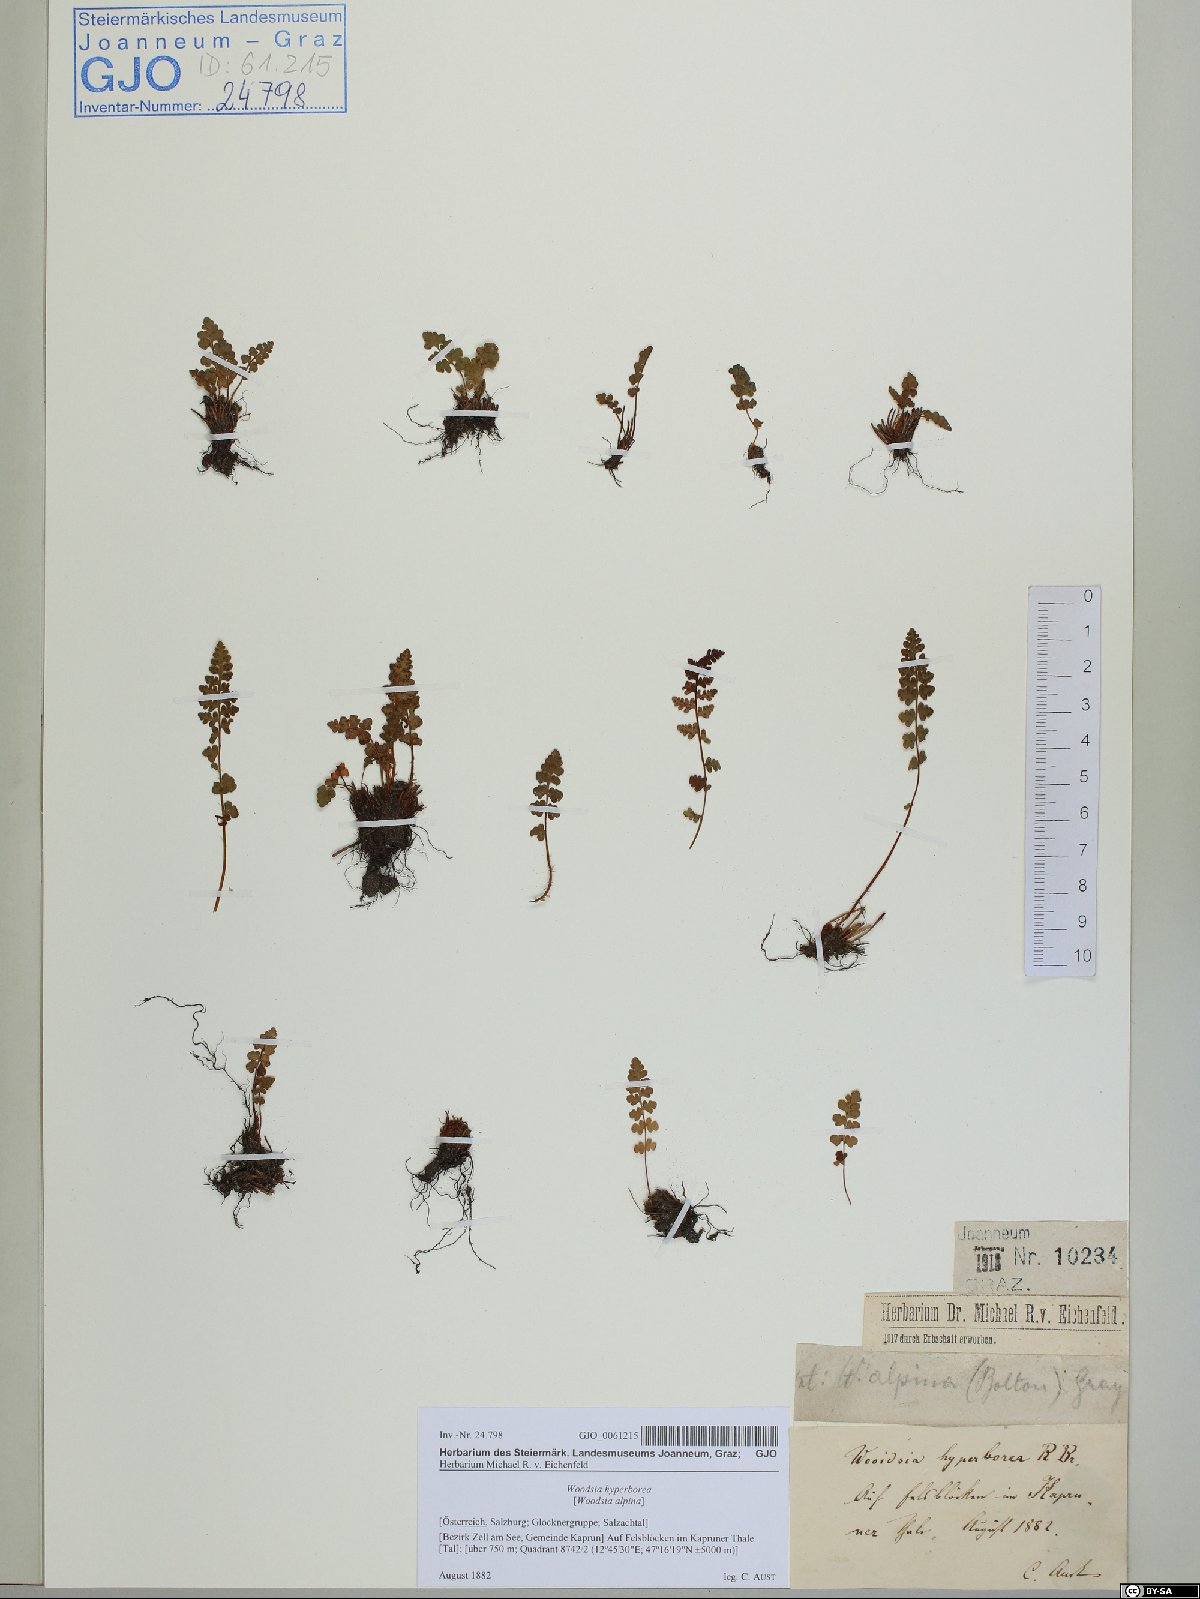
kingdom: Plantae
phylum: Tracheophyta
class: Polypodiopsida
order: Polypodiales
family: Woodsiaceae
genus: Woodsia
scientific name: Woodsia alpina
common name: Alpine woodsia
